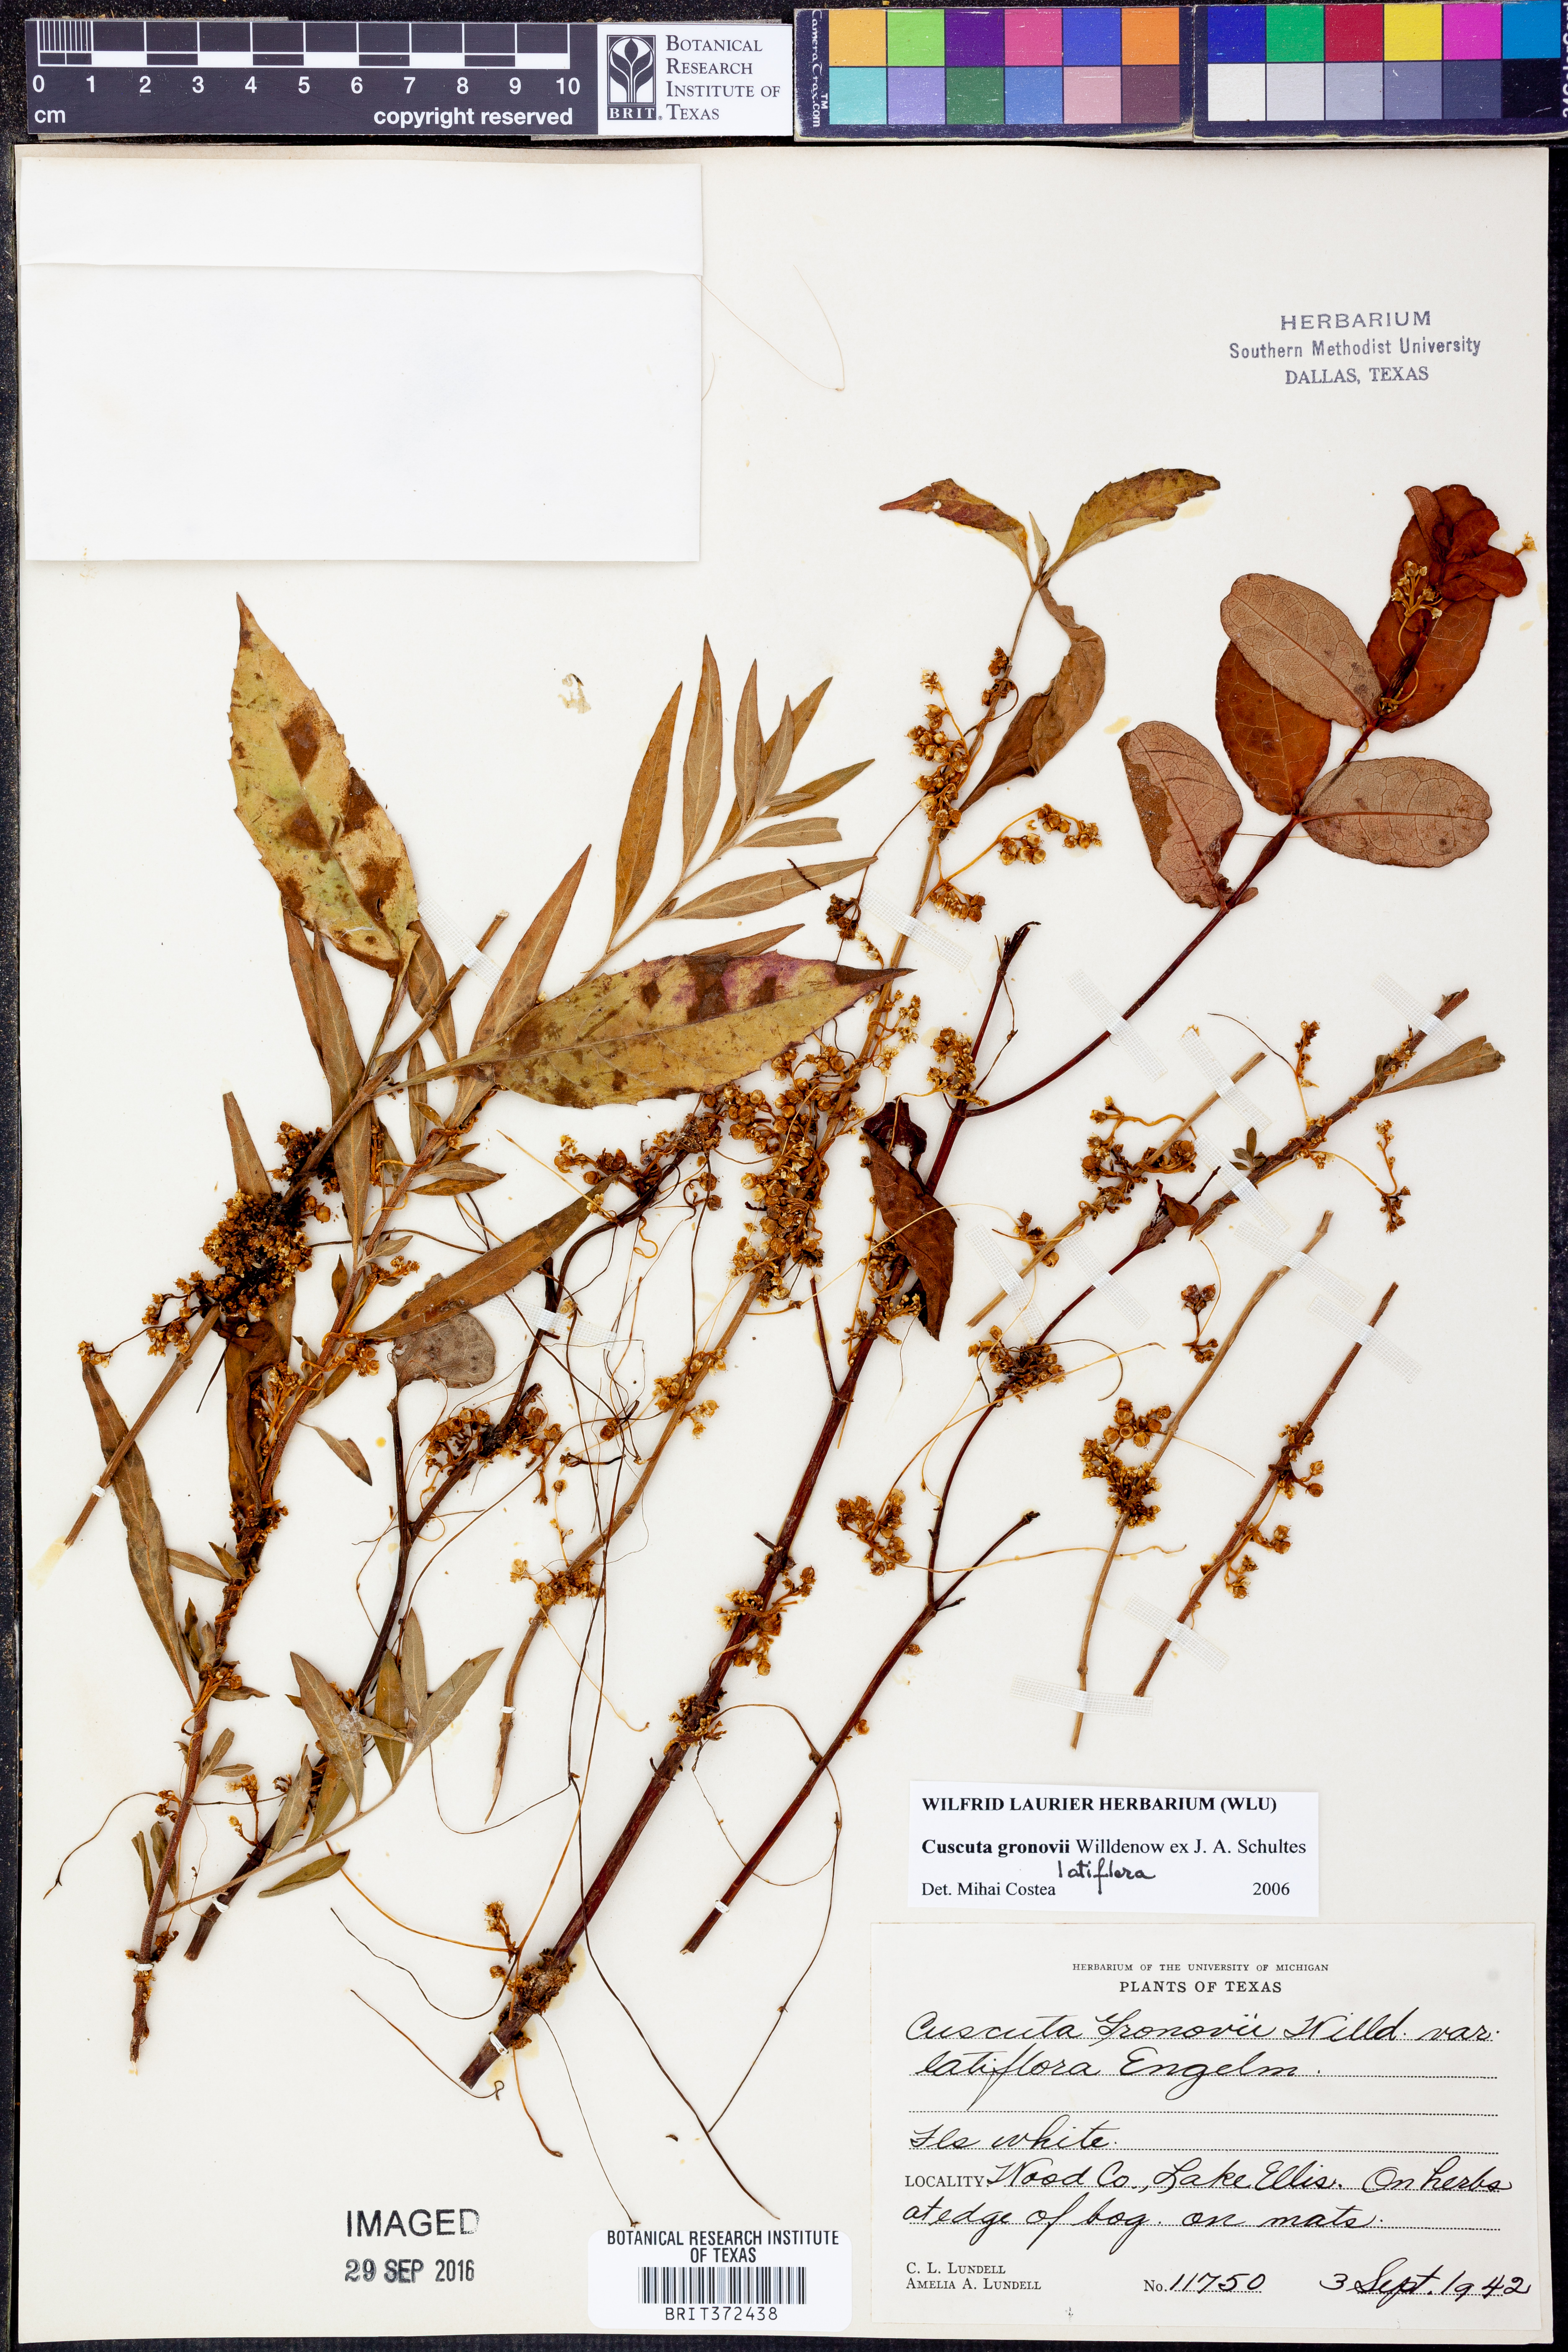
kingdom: Plantae
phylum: Tracheophyta
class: Magnoliopsida
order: Solanales
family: Convolvulaceae
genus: Cuscuta
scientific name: Cuscuta gronovii
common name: Common dodder
